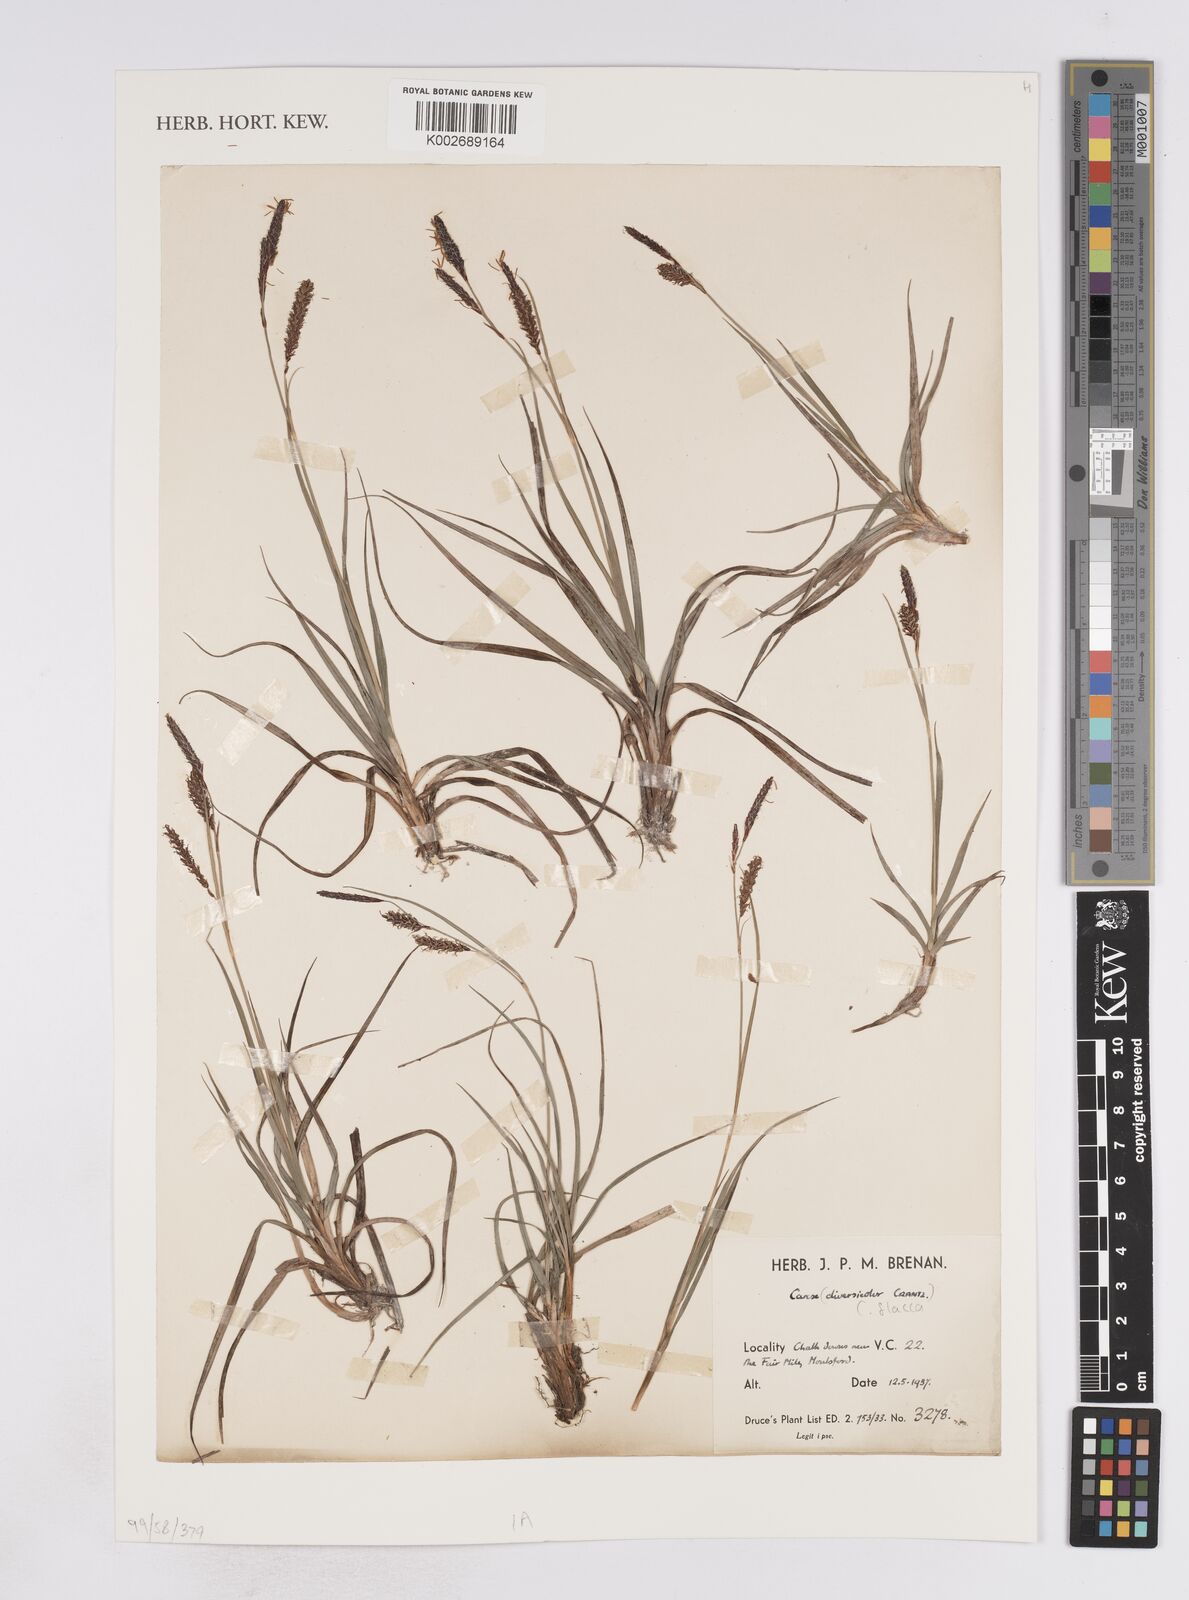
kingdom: Plantae
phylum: Tracheophyta
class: Liliopsida
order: Poales
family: Cyperaceae
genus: Carex
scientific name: Carex flacca
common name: Glaucous sedge
